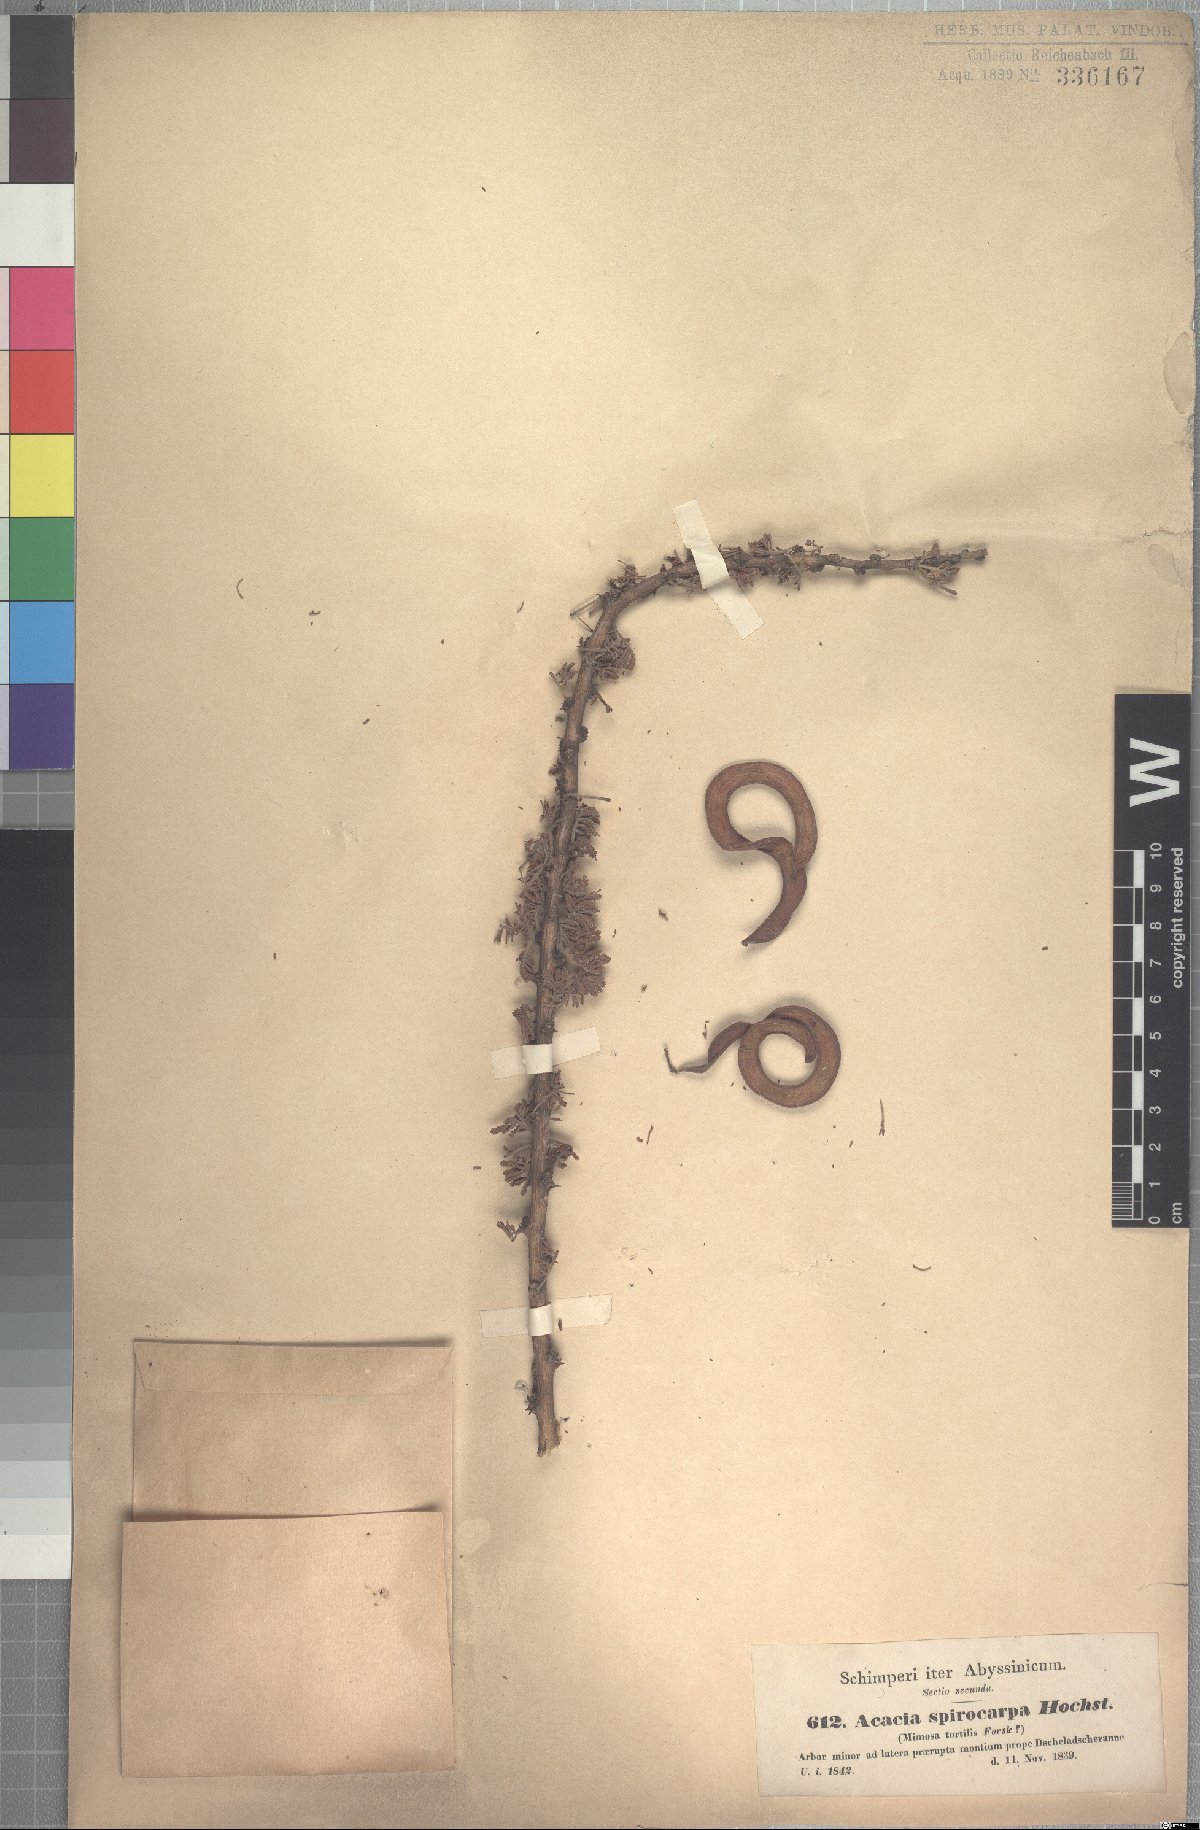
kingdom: Plantae
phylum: Tracheophyta
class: Magnoliopsida
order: Fabales
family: Fabaceae
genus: Vachellia
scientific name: Vachellia tortilis
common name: Umbrella thorn acacia
